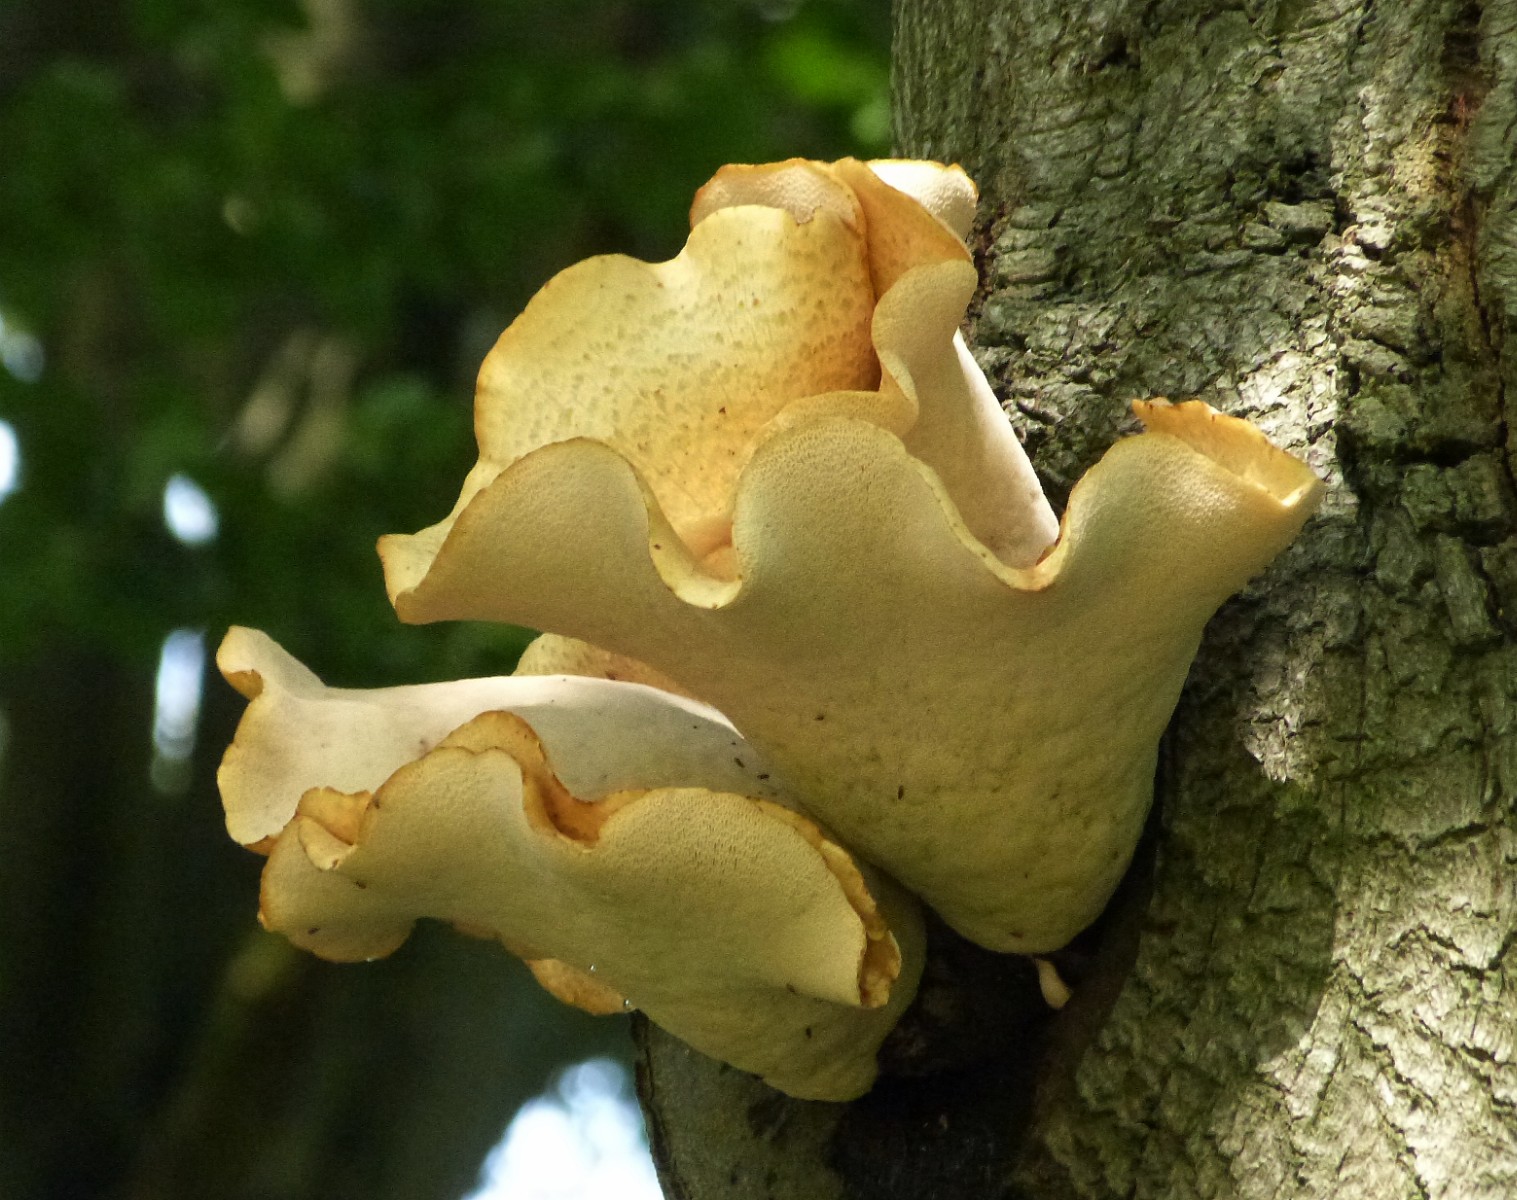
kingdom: Fungi
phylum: Basidiomycota
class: Agaricomycetes
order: Polyporales
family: Polyporaceae
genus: Cerioporus
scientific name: Cerioporus squamosus
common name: skællet stilkporesvamp
